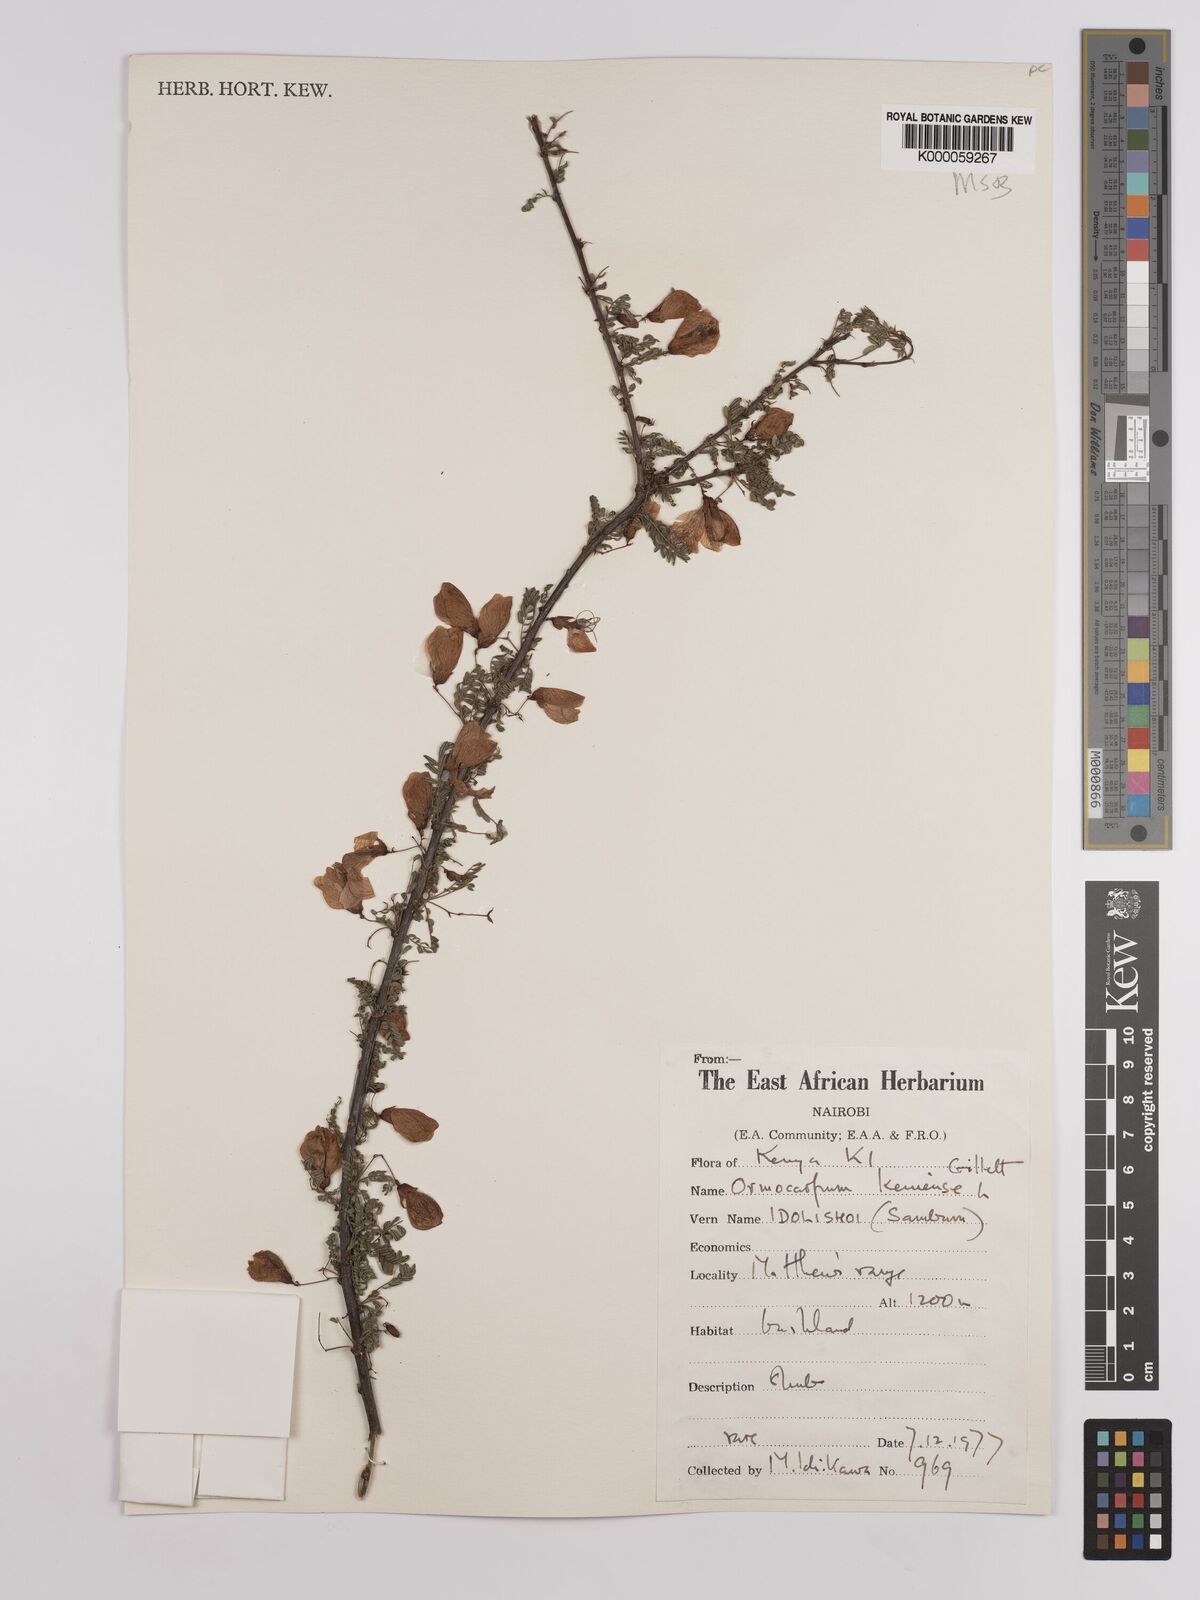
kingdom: Plantae
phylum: Tracheophyta
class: Magnoliopsida
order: Fabales
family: Fabaceae
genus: Ormocarpum
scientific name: Ormocarpum keniense
